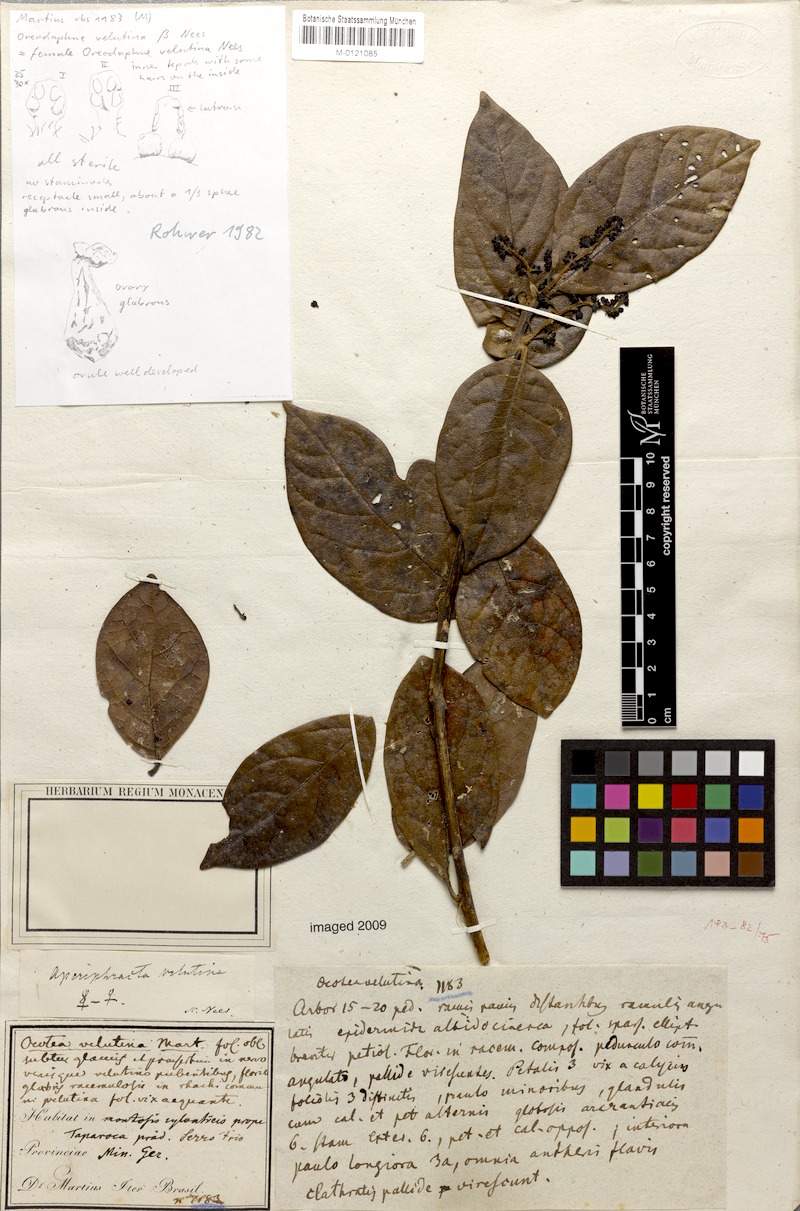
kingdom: Plantae
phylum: Tracheophyta
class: Magnoliopsida
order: Laurales
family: Lauraceae
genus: Andea
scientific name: Andea velutina
